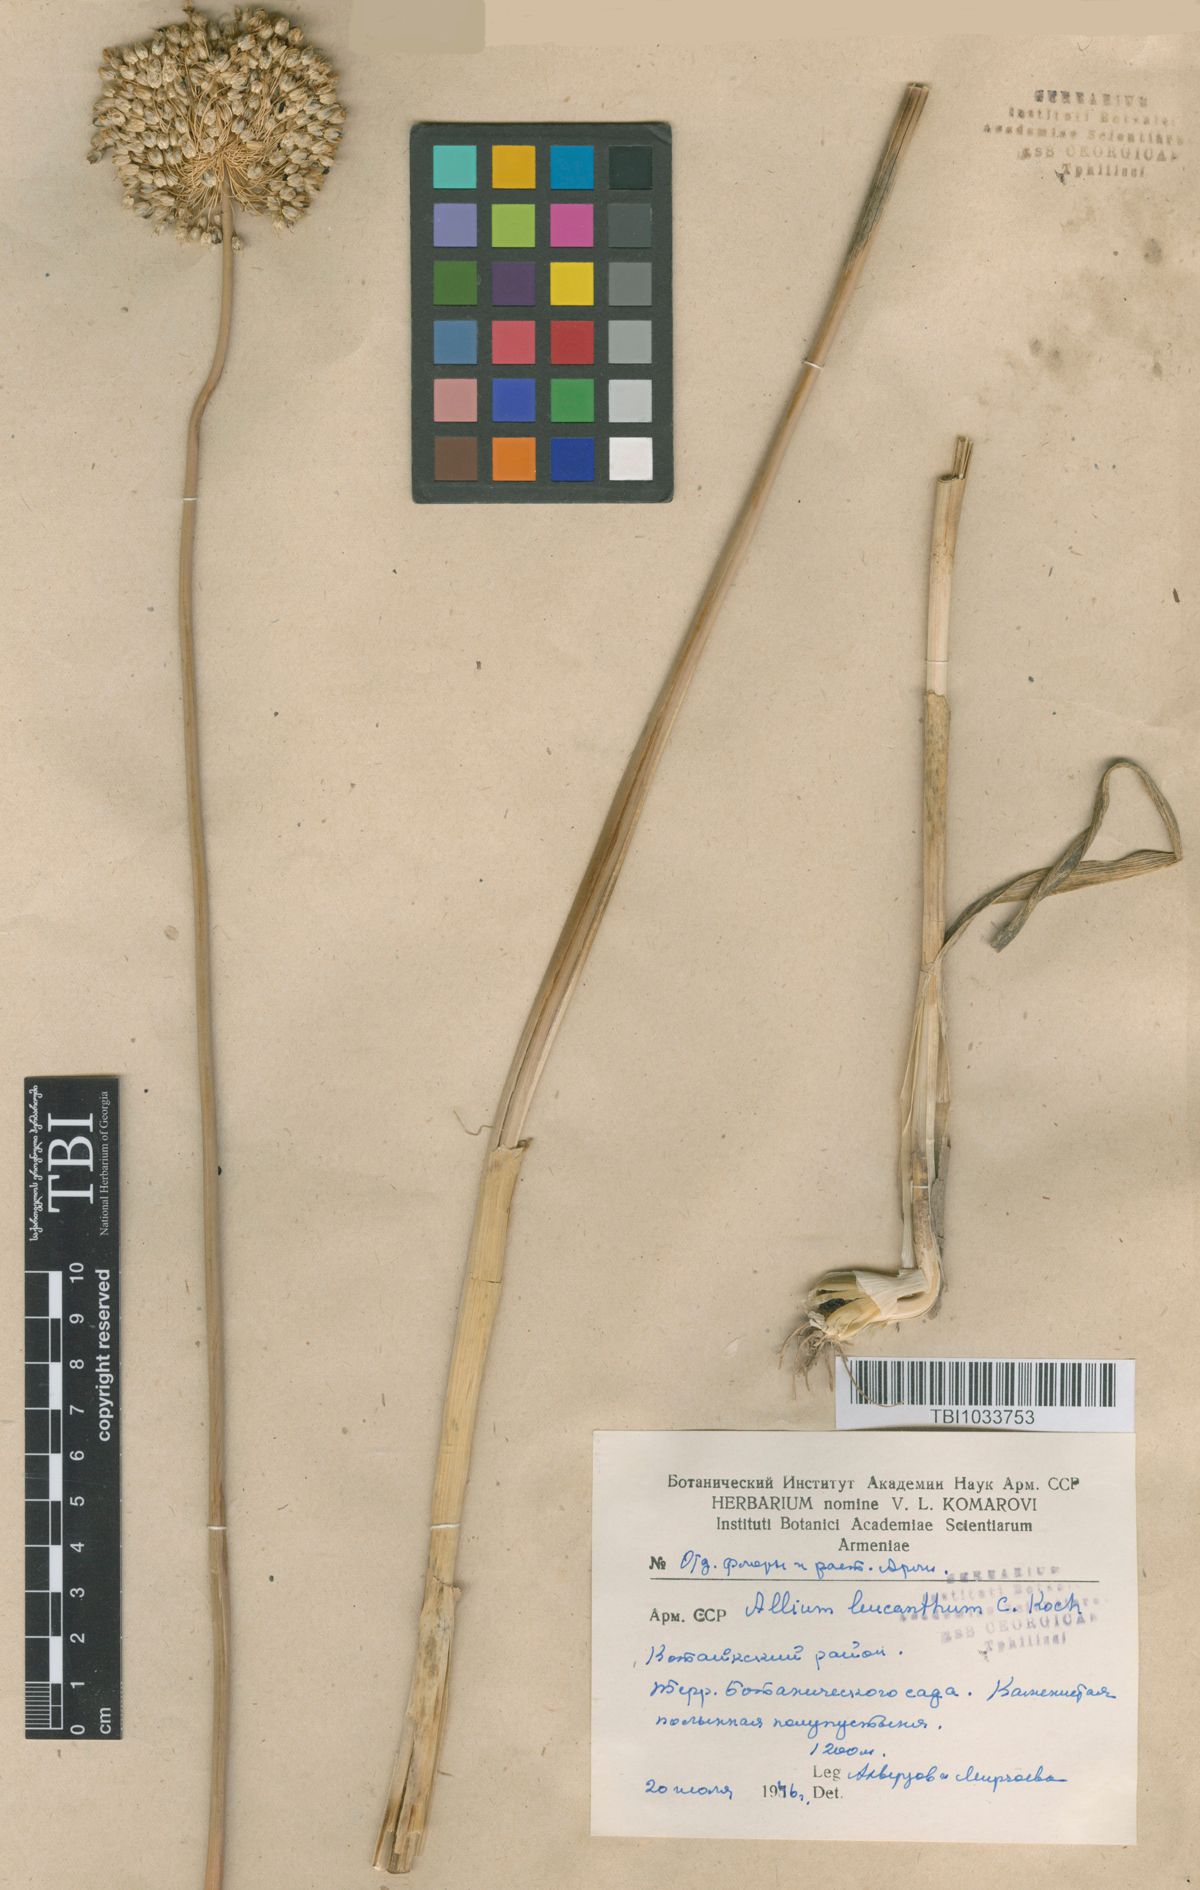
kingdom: Plantae
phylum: Tracheophyta
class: Liliopsida
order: Asparagales
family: Amaryllidaceae
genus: Allium
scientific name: Allium ampeloprasum
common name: Wild leek
